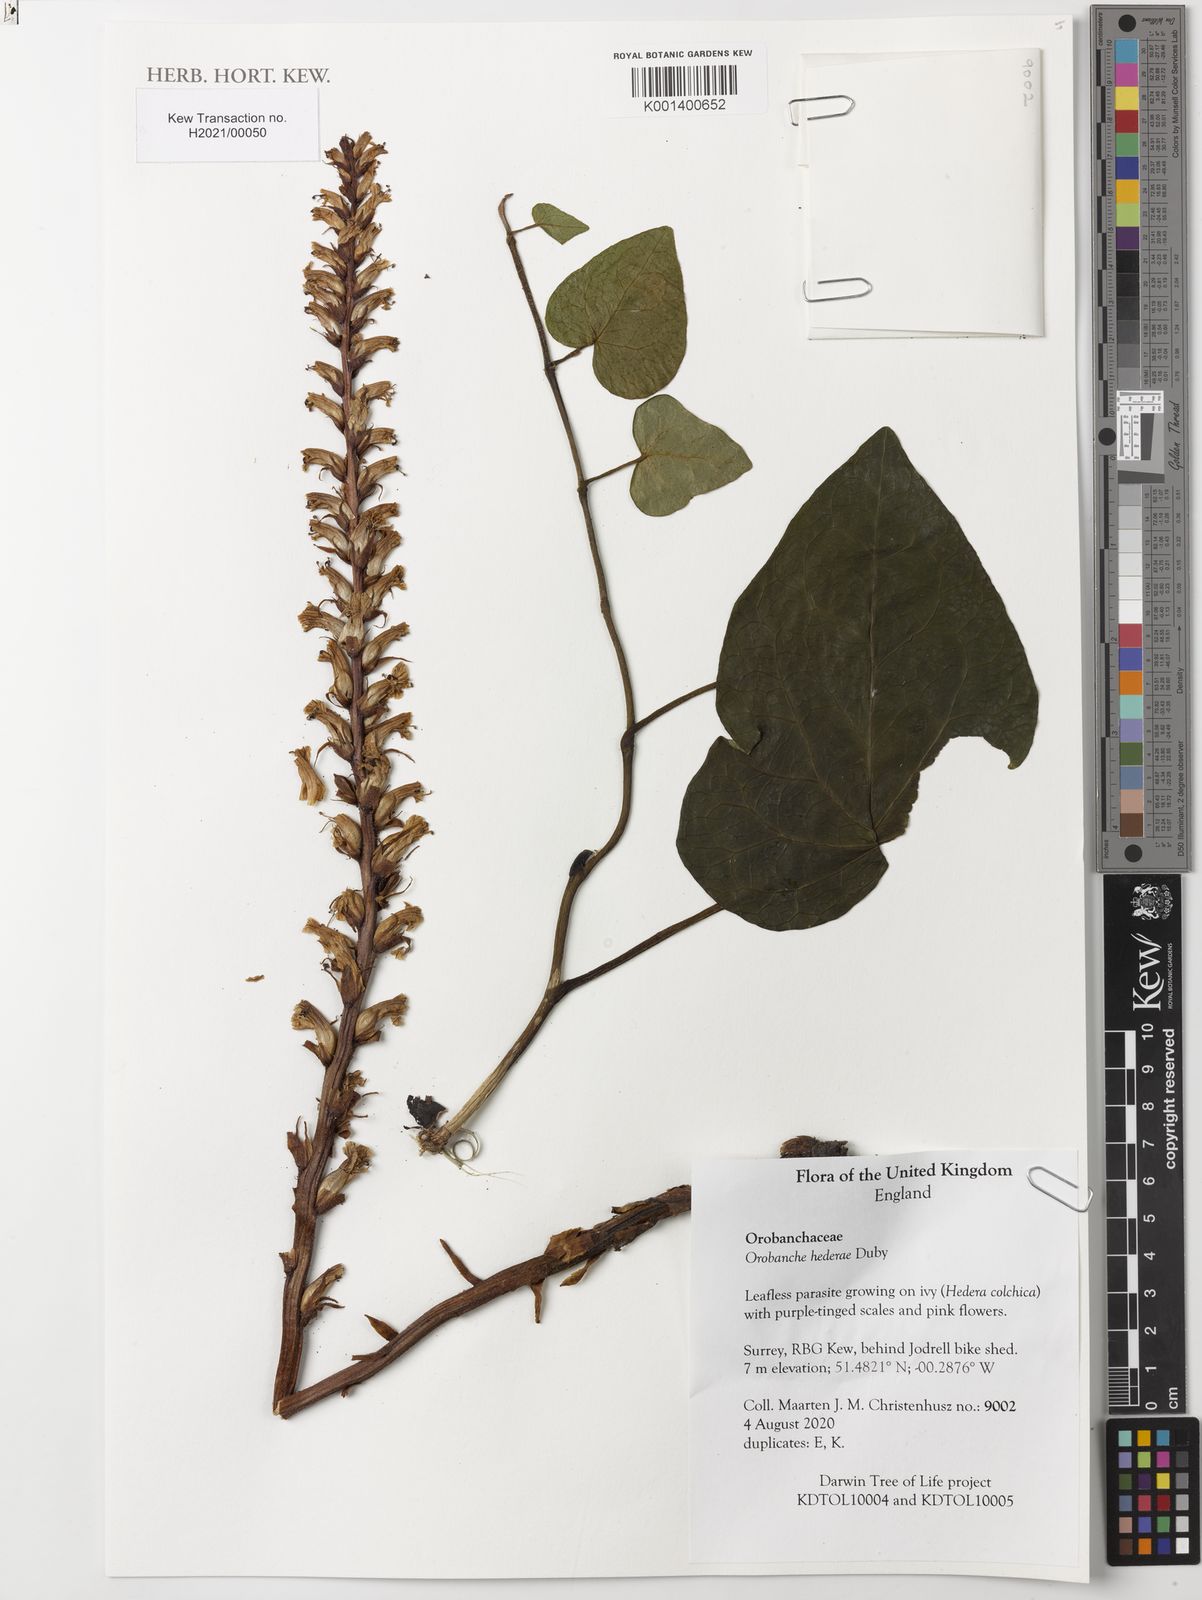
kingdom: Plantae
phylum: Tracheophyta
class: Magnoliopsida
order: Lamiales
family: Orobanchaceae
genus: Orobanche
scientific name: Orobanche hederae
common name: Ivy broomrape
